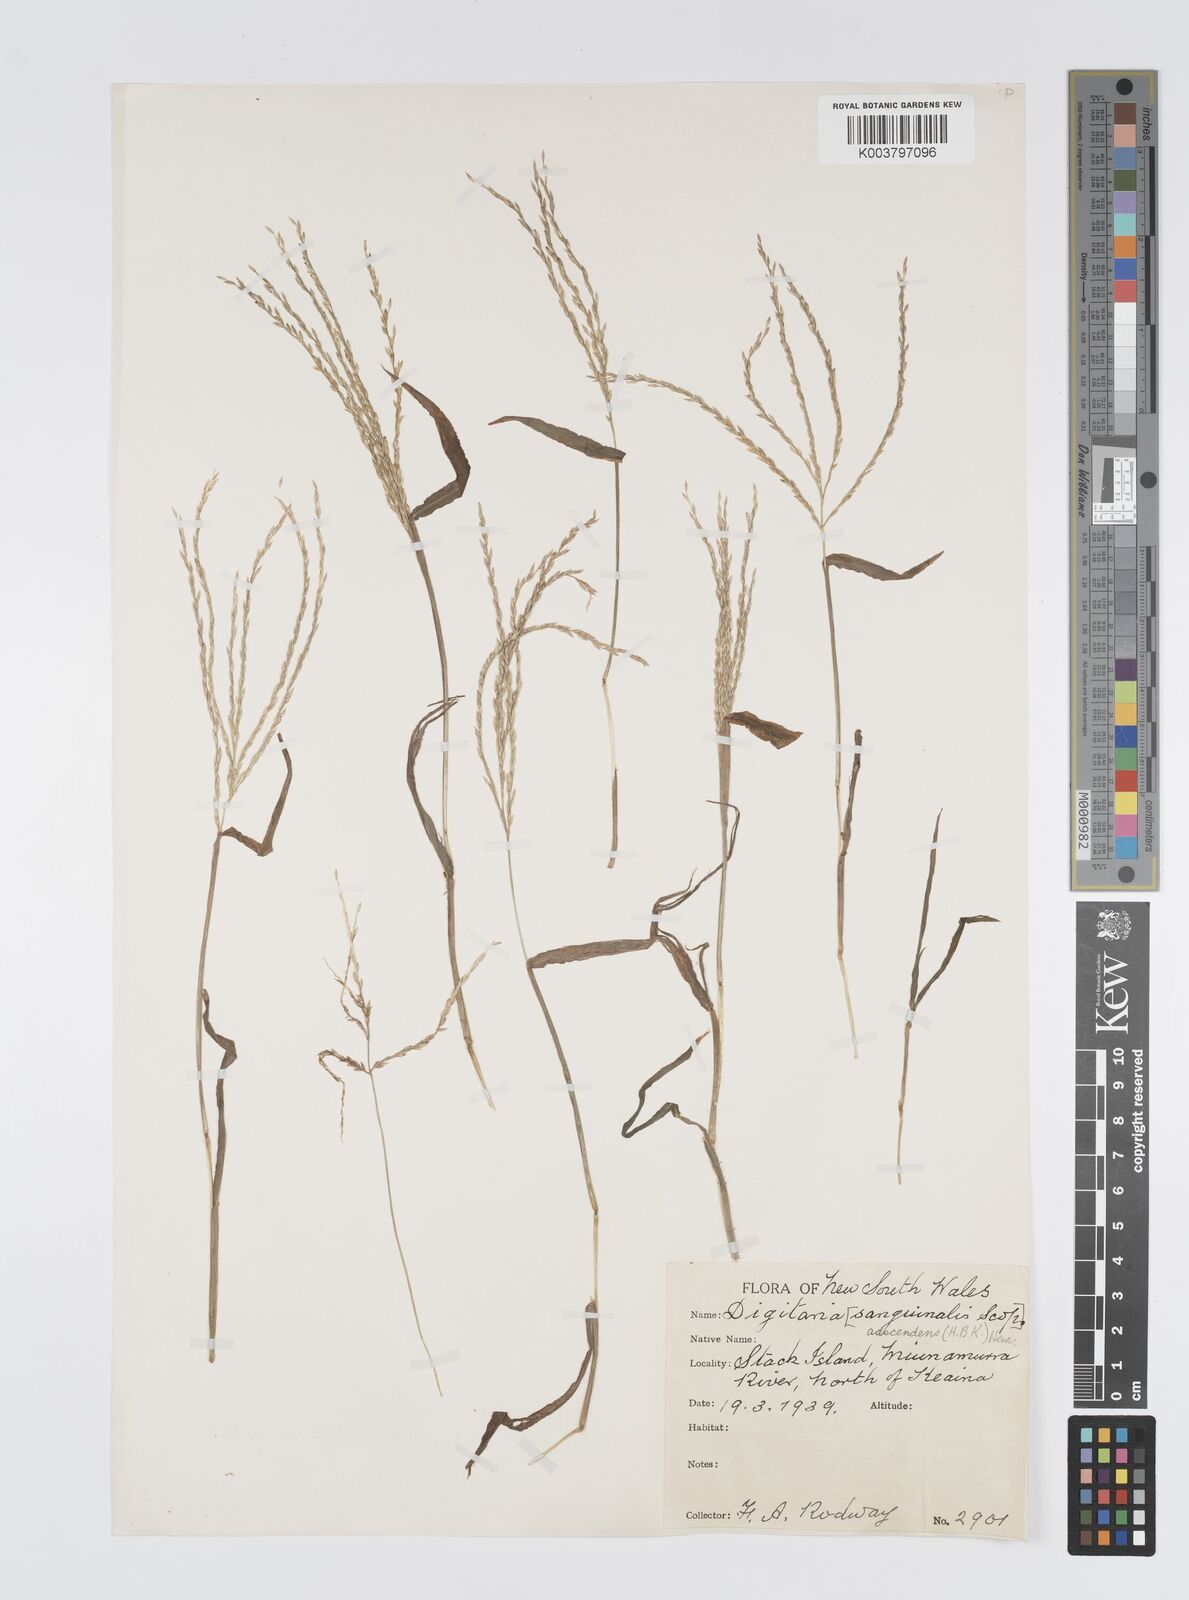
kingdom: Plantae
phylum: Tracheophyta
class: Liliopsida
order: Poales
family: Poaceae
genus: Digitaria
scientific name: Digitaria ciliaris
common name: Tropical finger-grass
